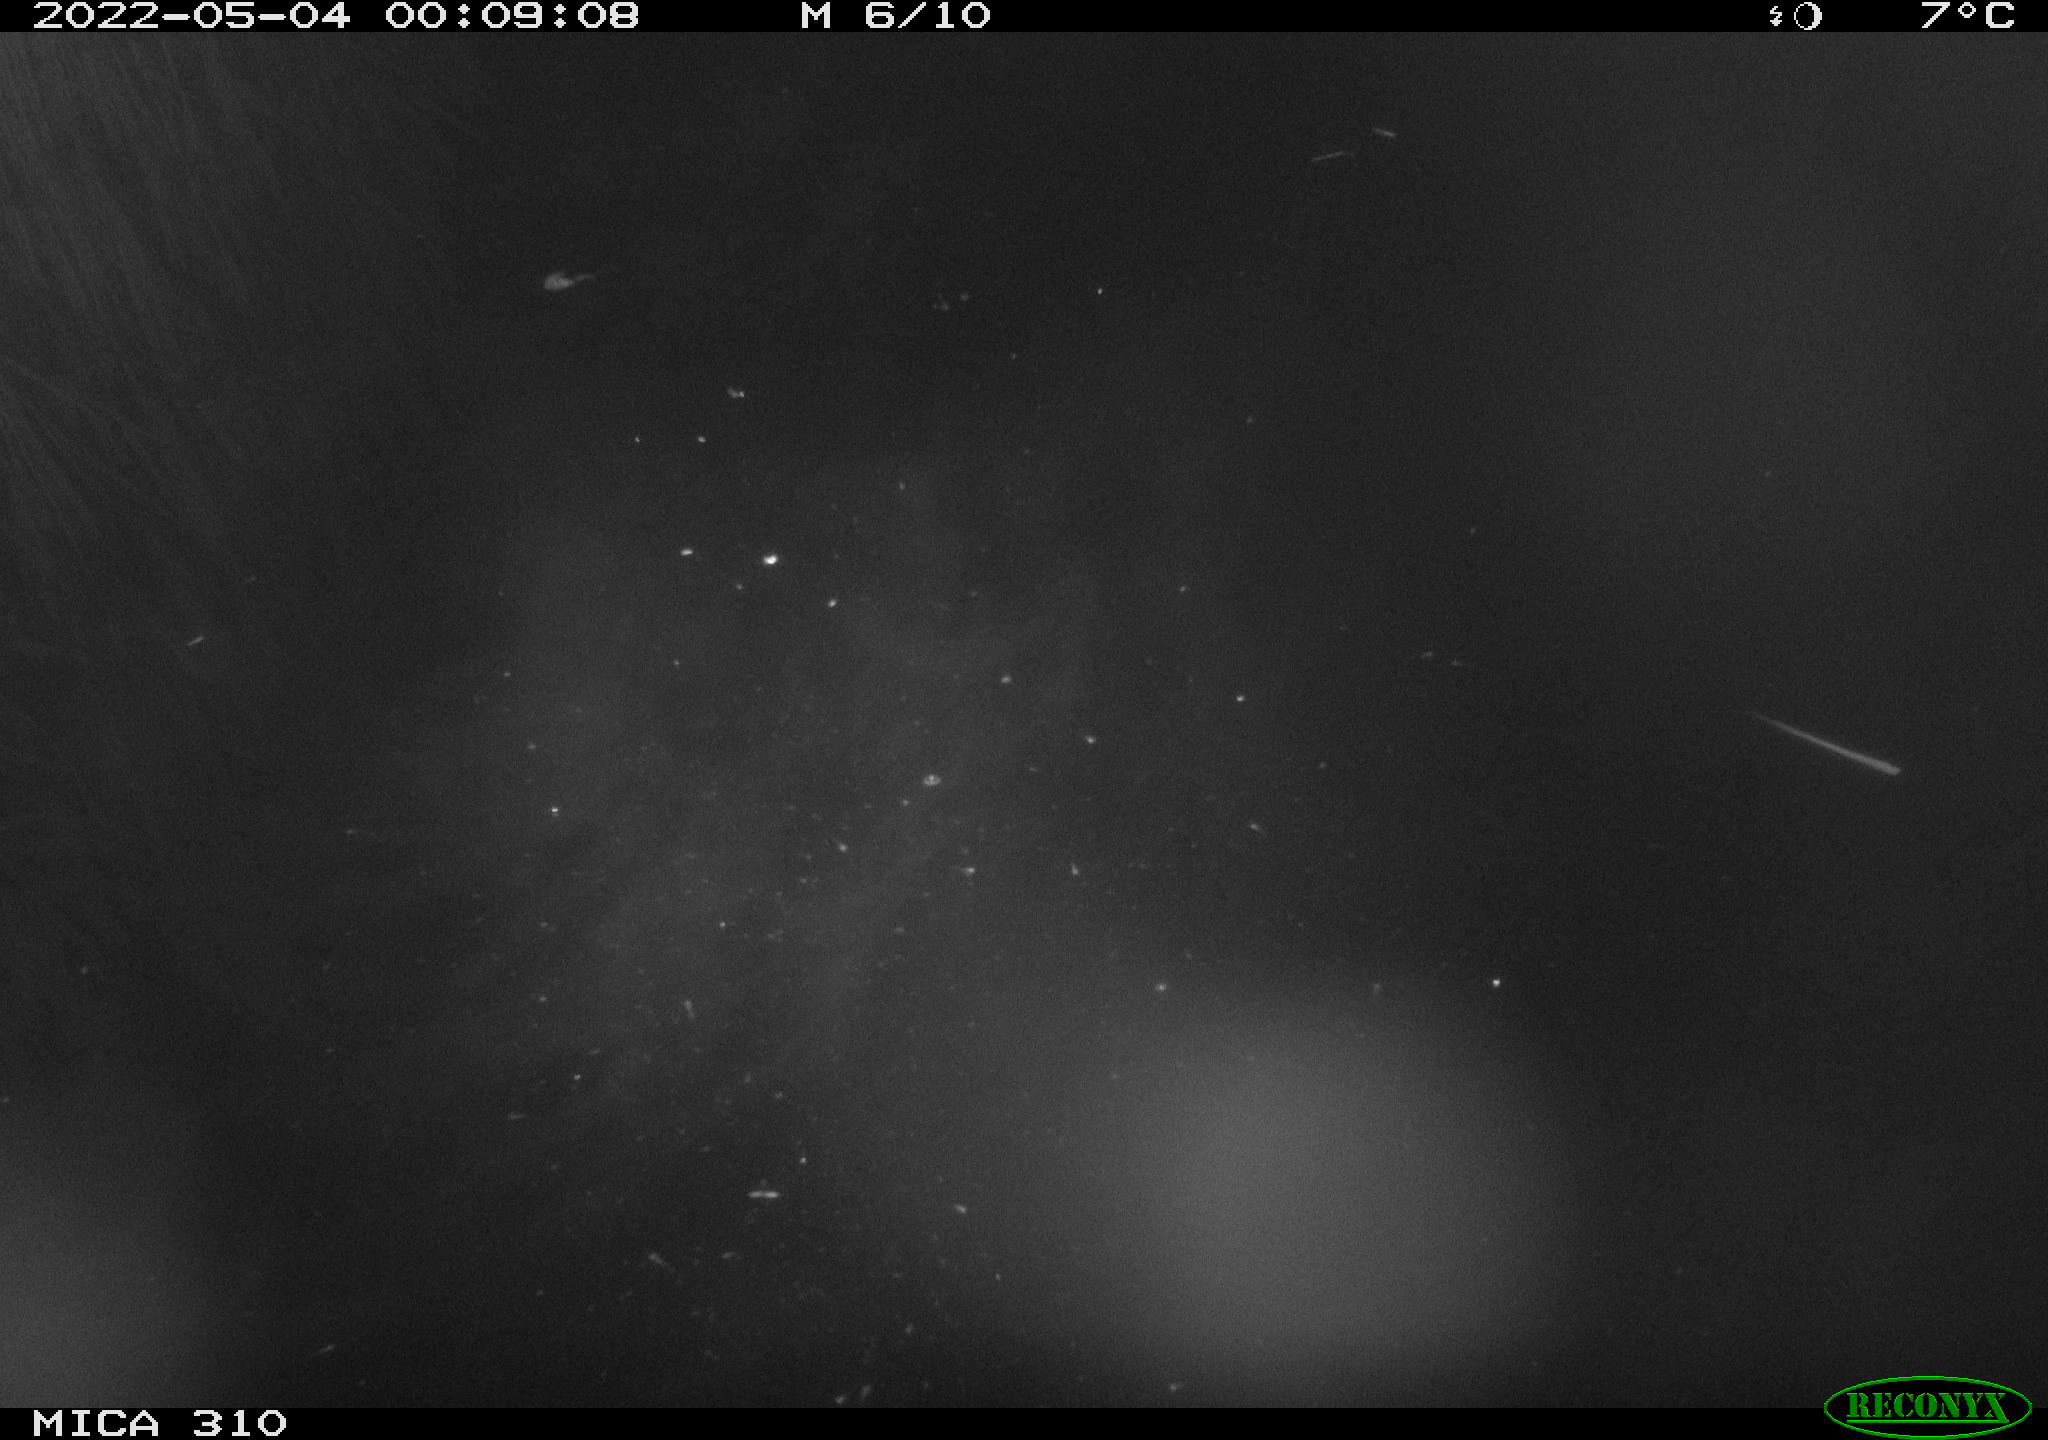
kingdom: Animalia
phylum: Chordata
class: Aves
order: Anseriformes
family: Anatidae
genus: Anas
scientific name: Anas platyrhynchos
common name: Mallard
